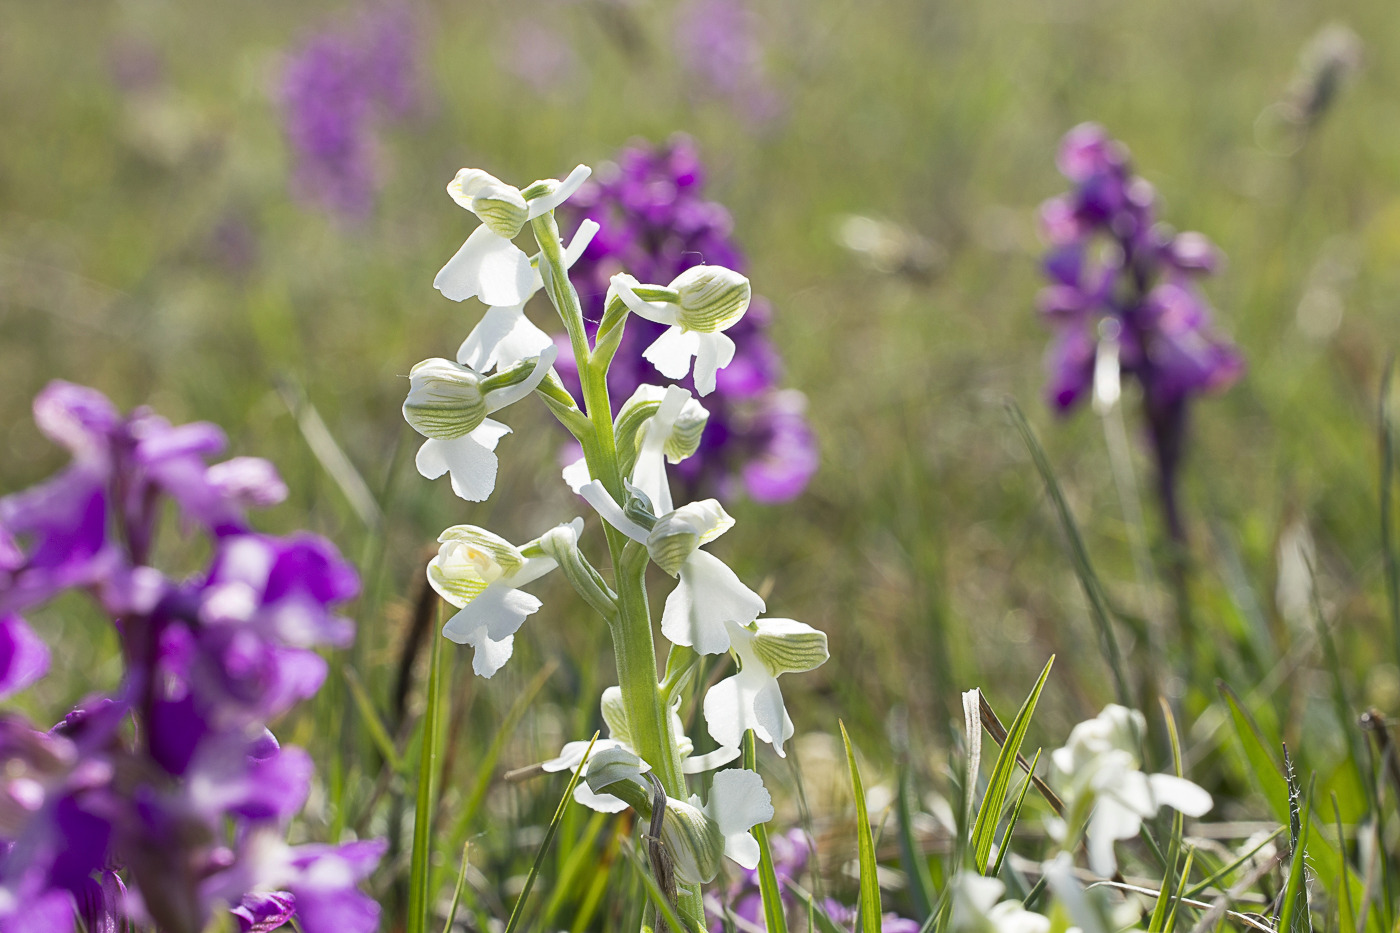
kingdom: Plantae
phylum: Tracheophyta
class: Liliopsida
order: Asparagales
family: Orchidaceae
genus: Anacamptis
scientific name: Anacamptis morio
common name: Salepgøgeurt
